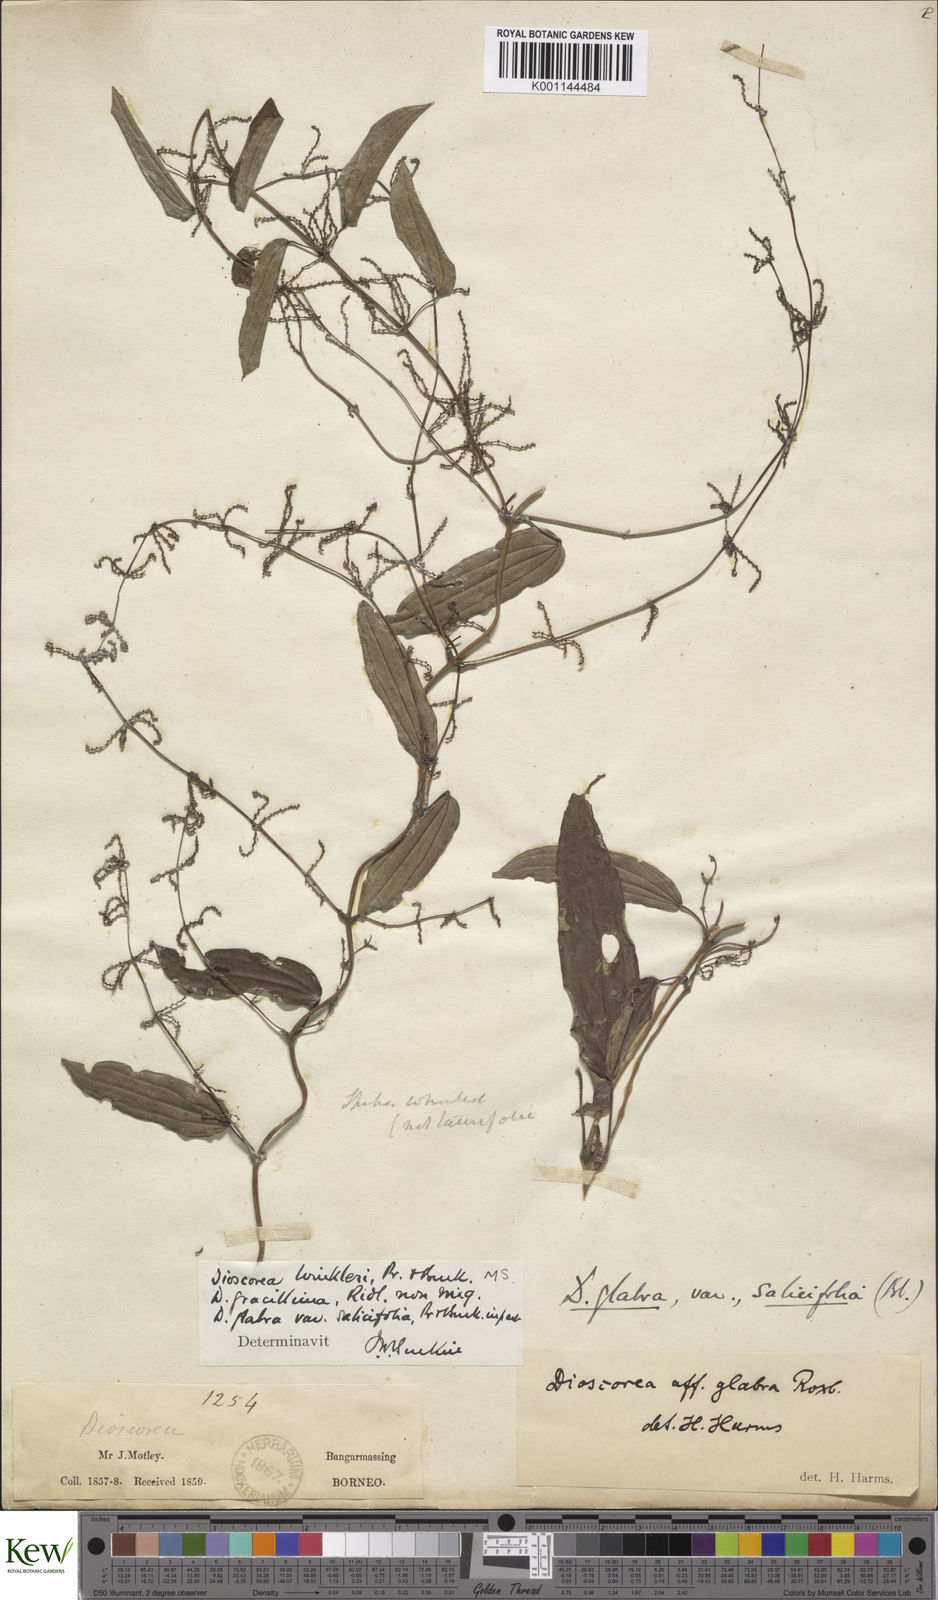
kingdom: Plantae
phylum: Tracheophyta
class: Liliopsida
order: Dioscoreales
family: Dioscoreaceae
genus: Dioscorea
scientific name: Dioscorea salicifolia
